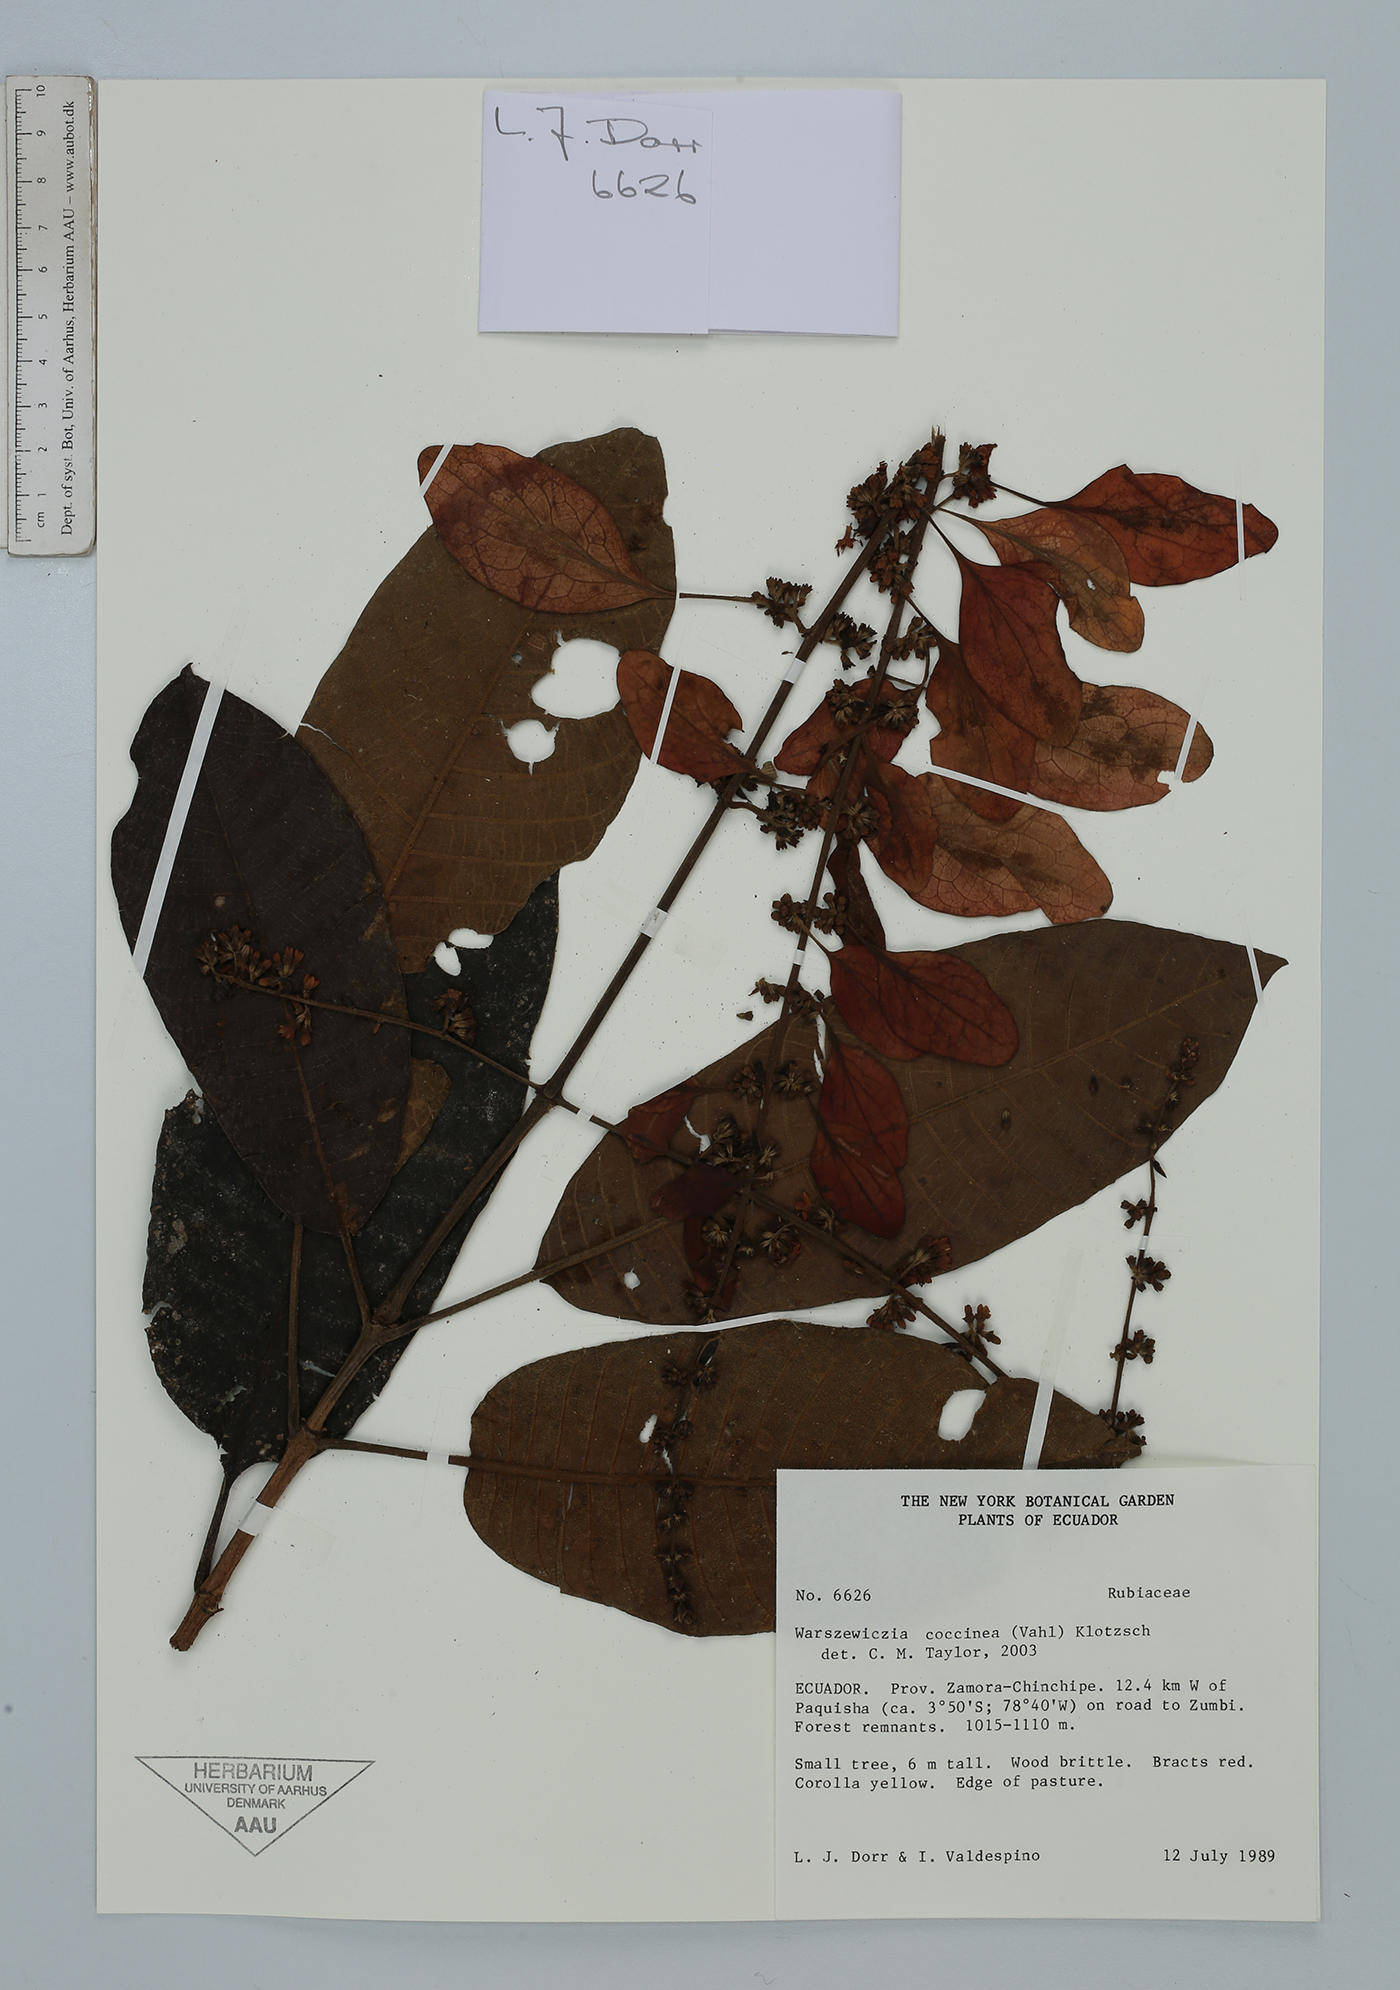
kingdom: Plantae
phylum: Tracheophyta
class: Magnoliopsida
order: Gentianales
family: Rubiaceae
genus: Warszewiczia
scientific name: Warszewiczia coccinea
